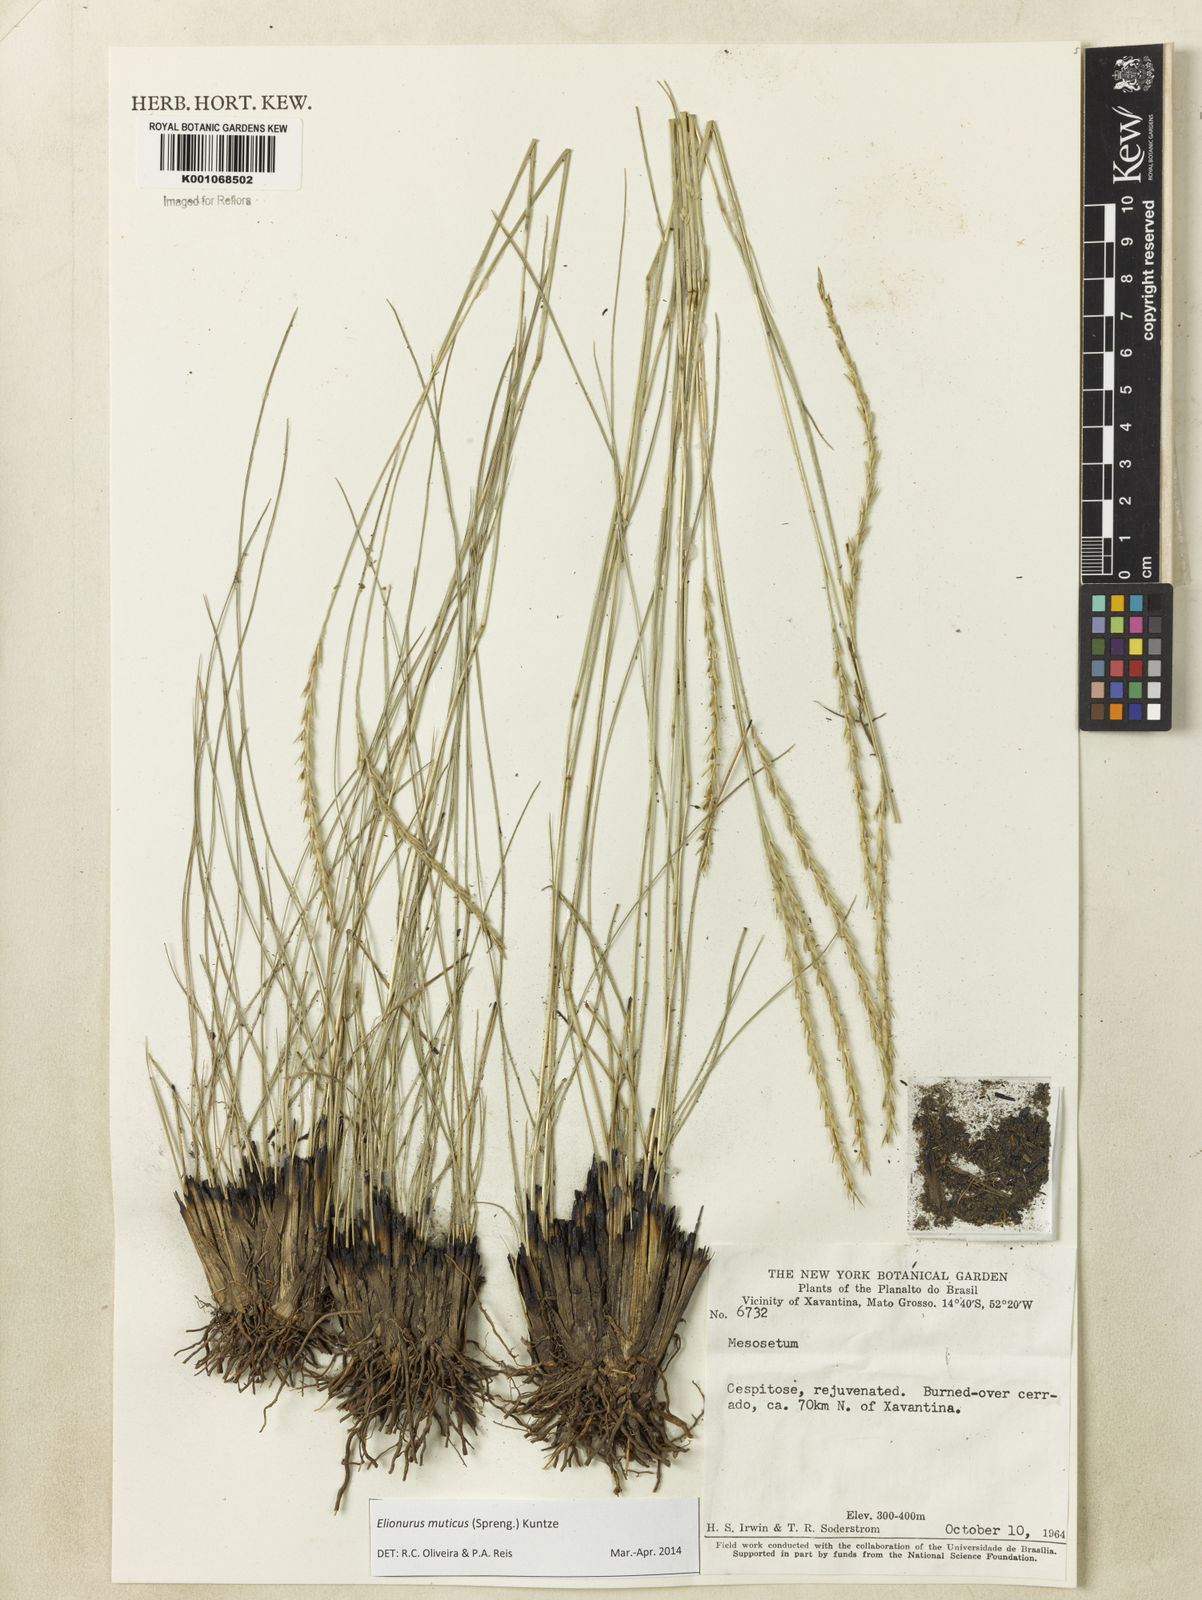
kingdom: Plantae
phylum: Tracheophyta
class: Liliopsida
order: Poales
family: Poaceae
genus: Elionurus
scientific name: Elionurus muticus
